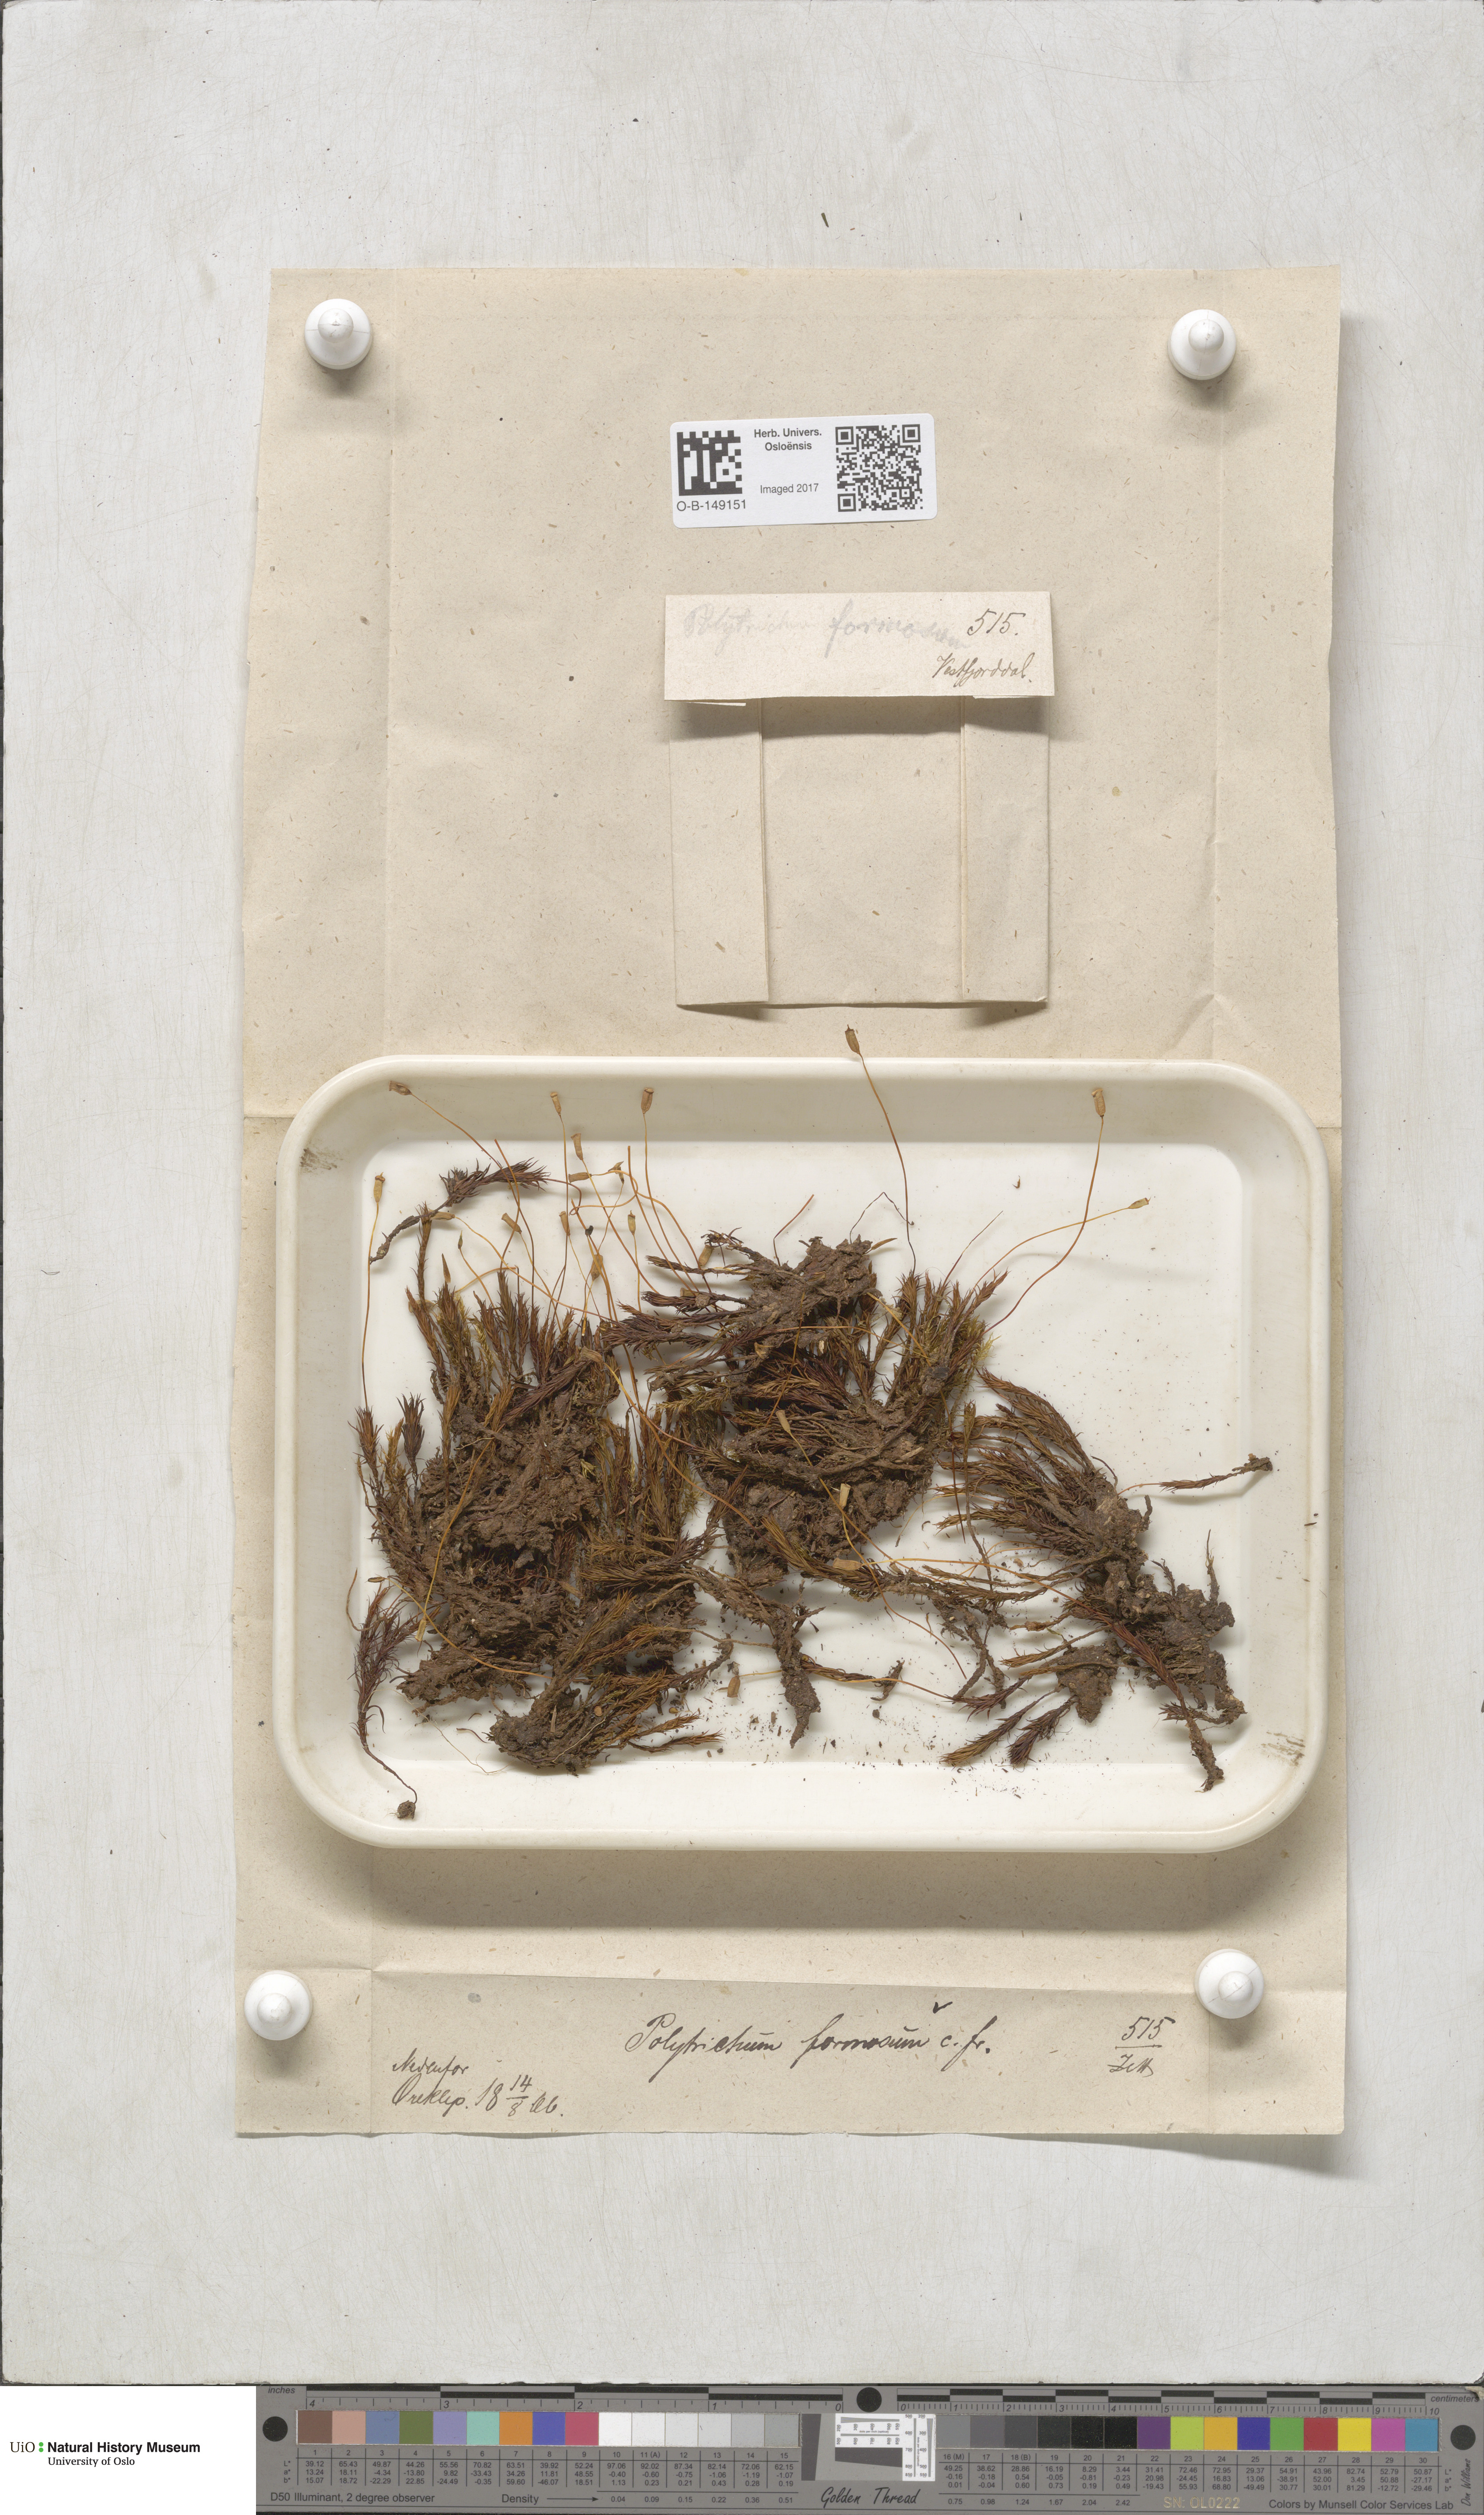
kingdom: Plantae
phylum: Bryophyta
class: Polytrichopsida
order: Polytrichales
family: Polytrichaceae
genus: Polytrichum
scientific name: Polytrichum formosum
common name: Bank haircap moss
